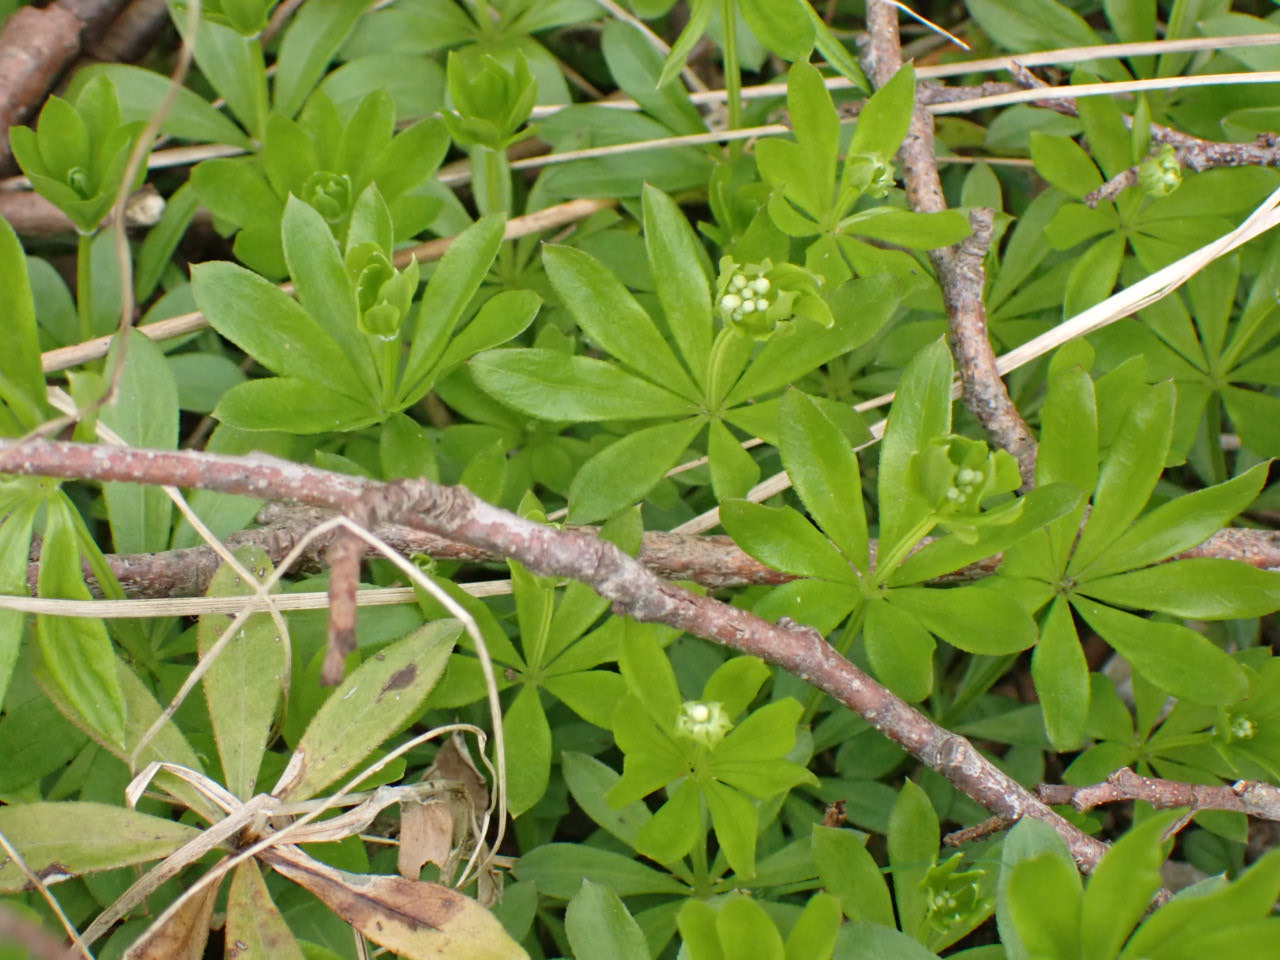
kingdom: Plantae
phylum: Tracheophyta
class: Magnoliopsida
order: Gentianales
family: Rubiaceae
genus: Galium
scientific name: Galium odoratum
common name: Skovmærke
